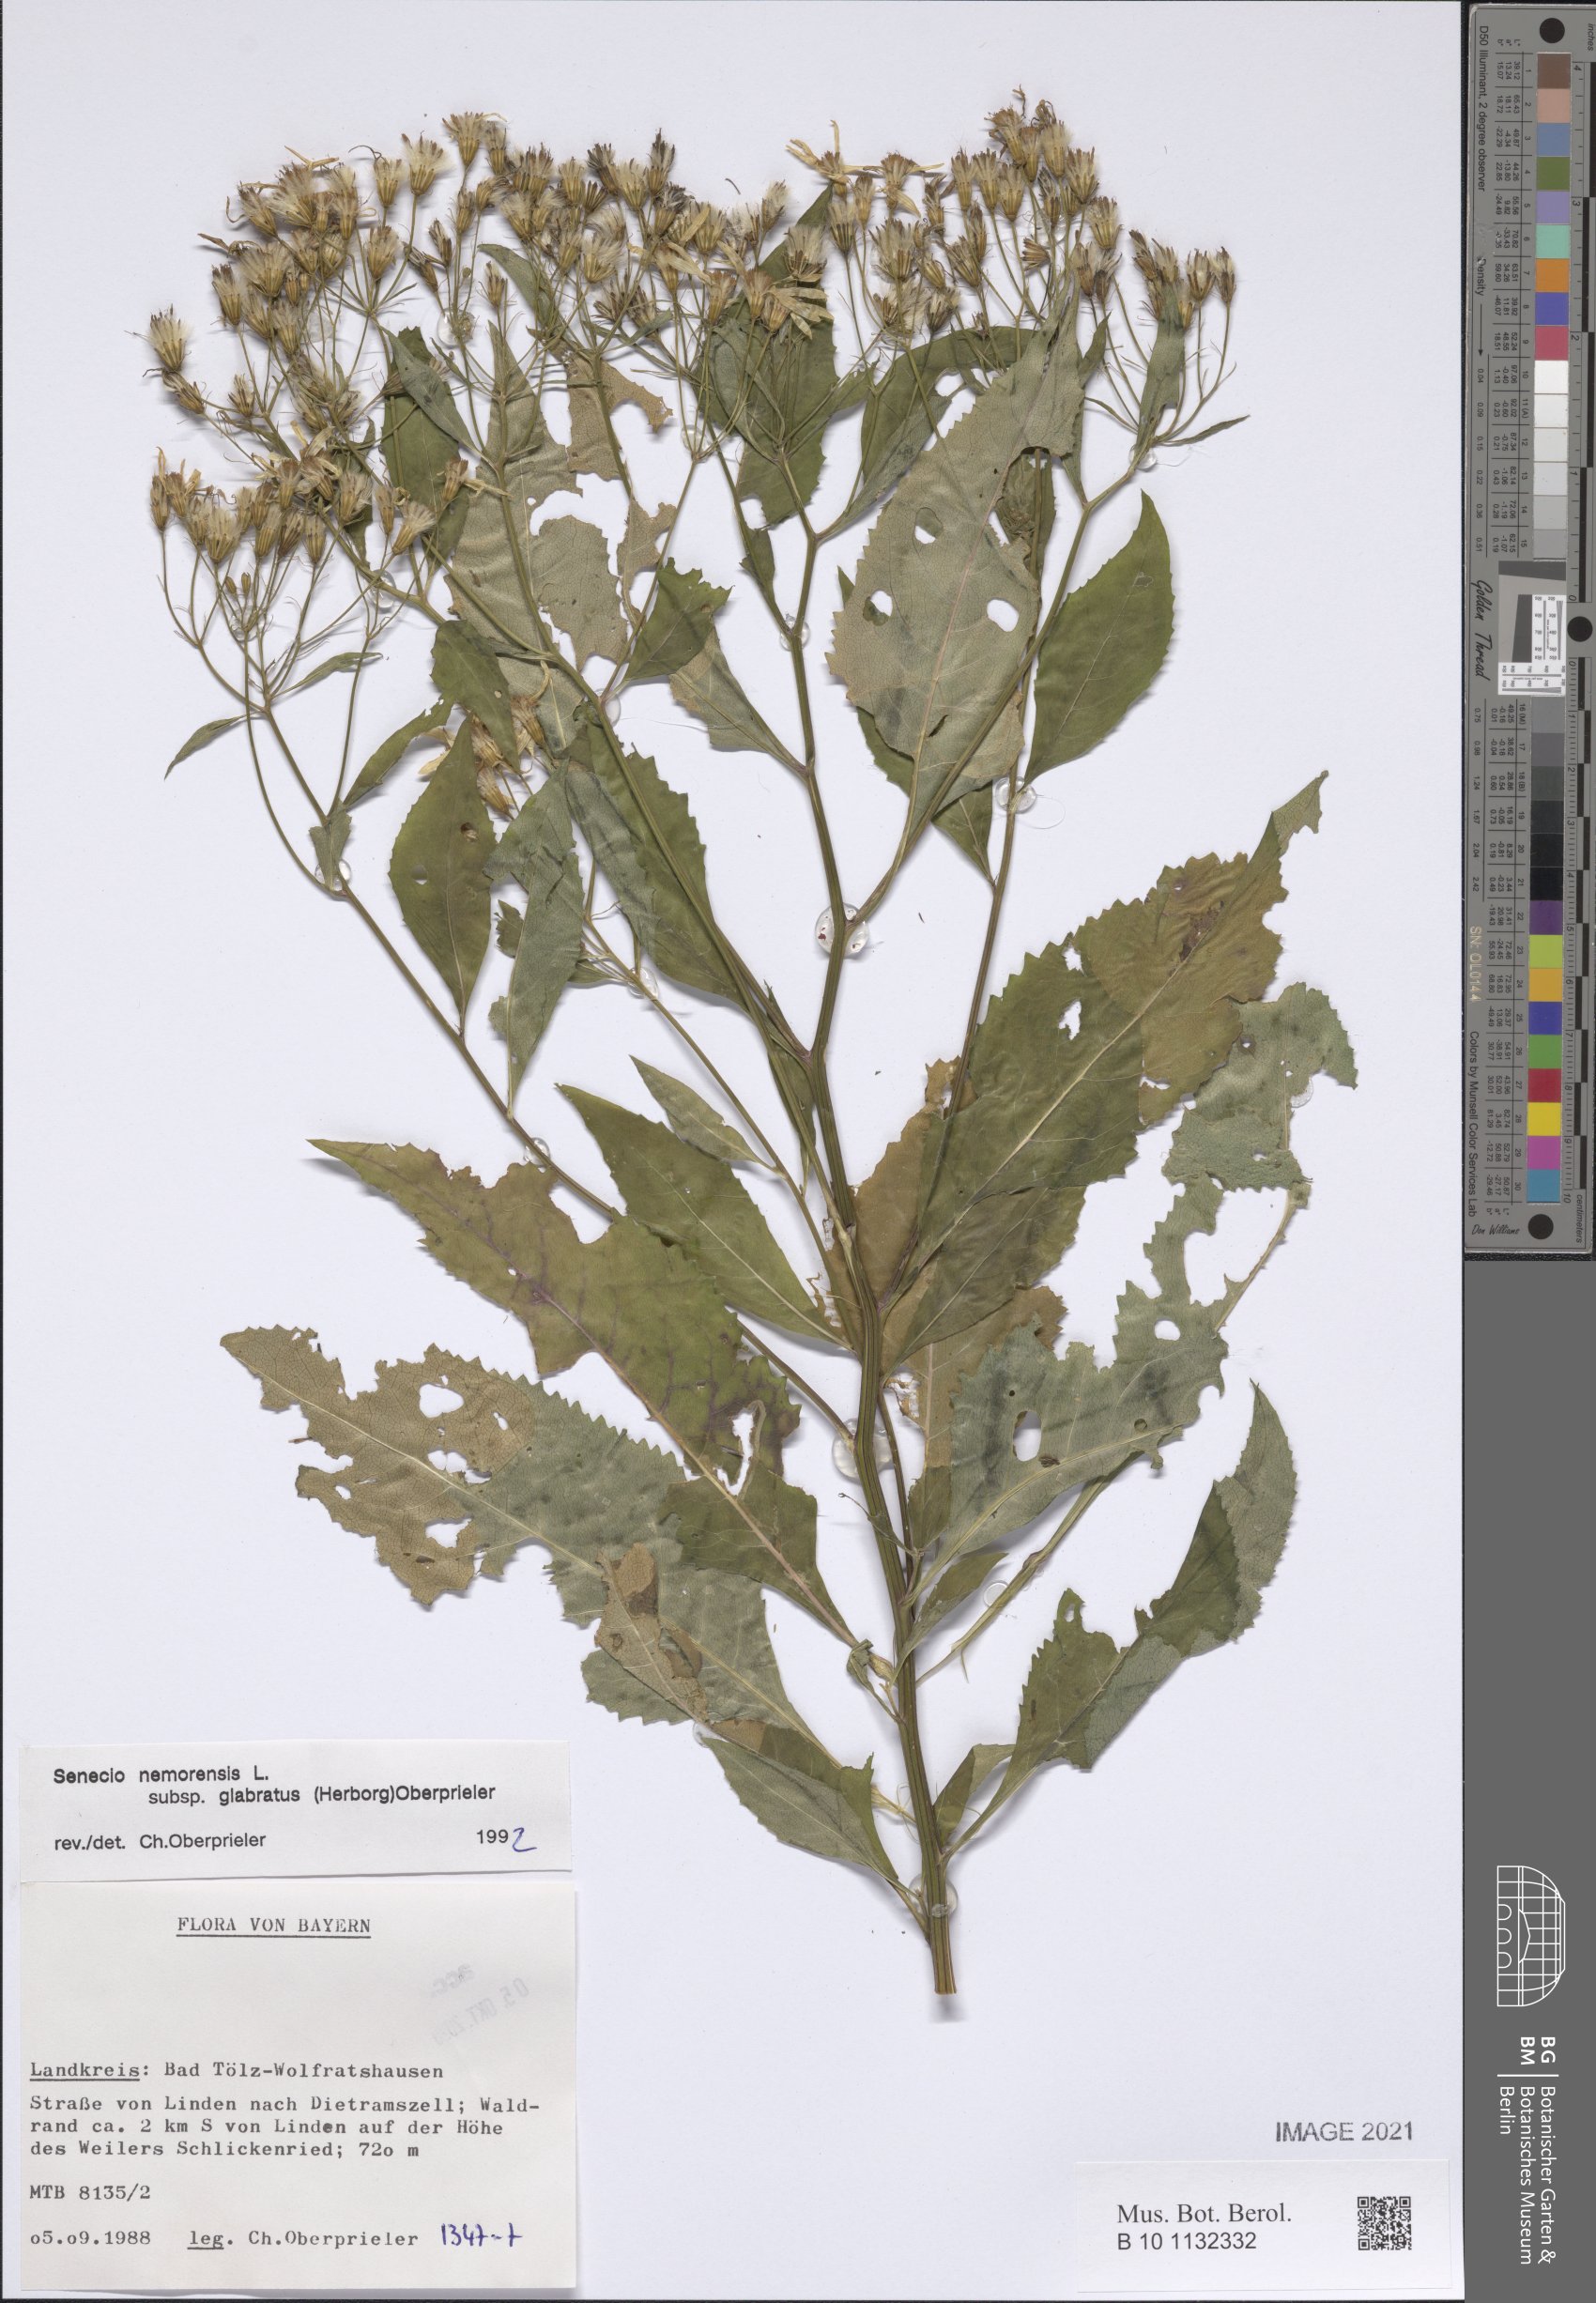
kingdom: Plantae
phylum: Tracheophyta
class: Magnoliopsida
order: Asterales
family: Asteraceae
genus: Senecio
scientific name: Senecio germanicus
